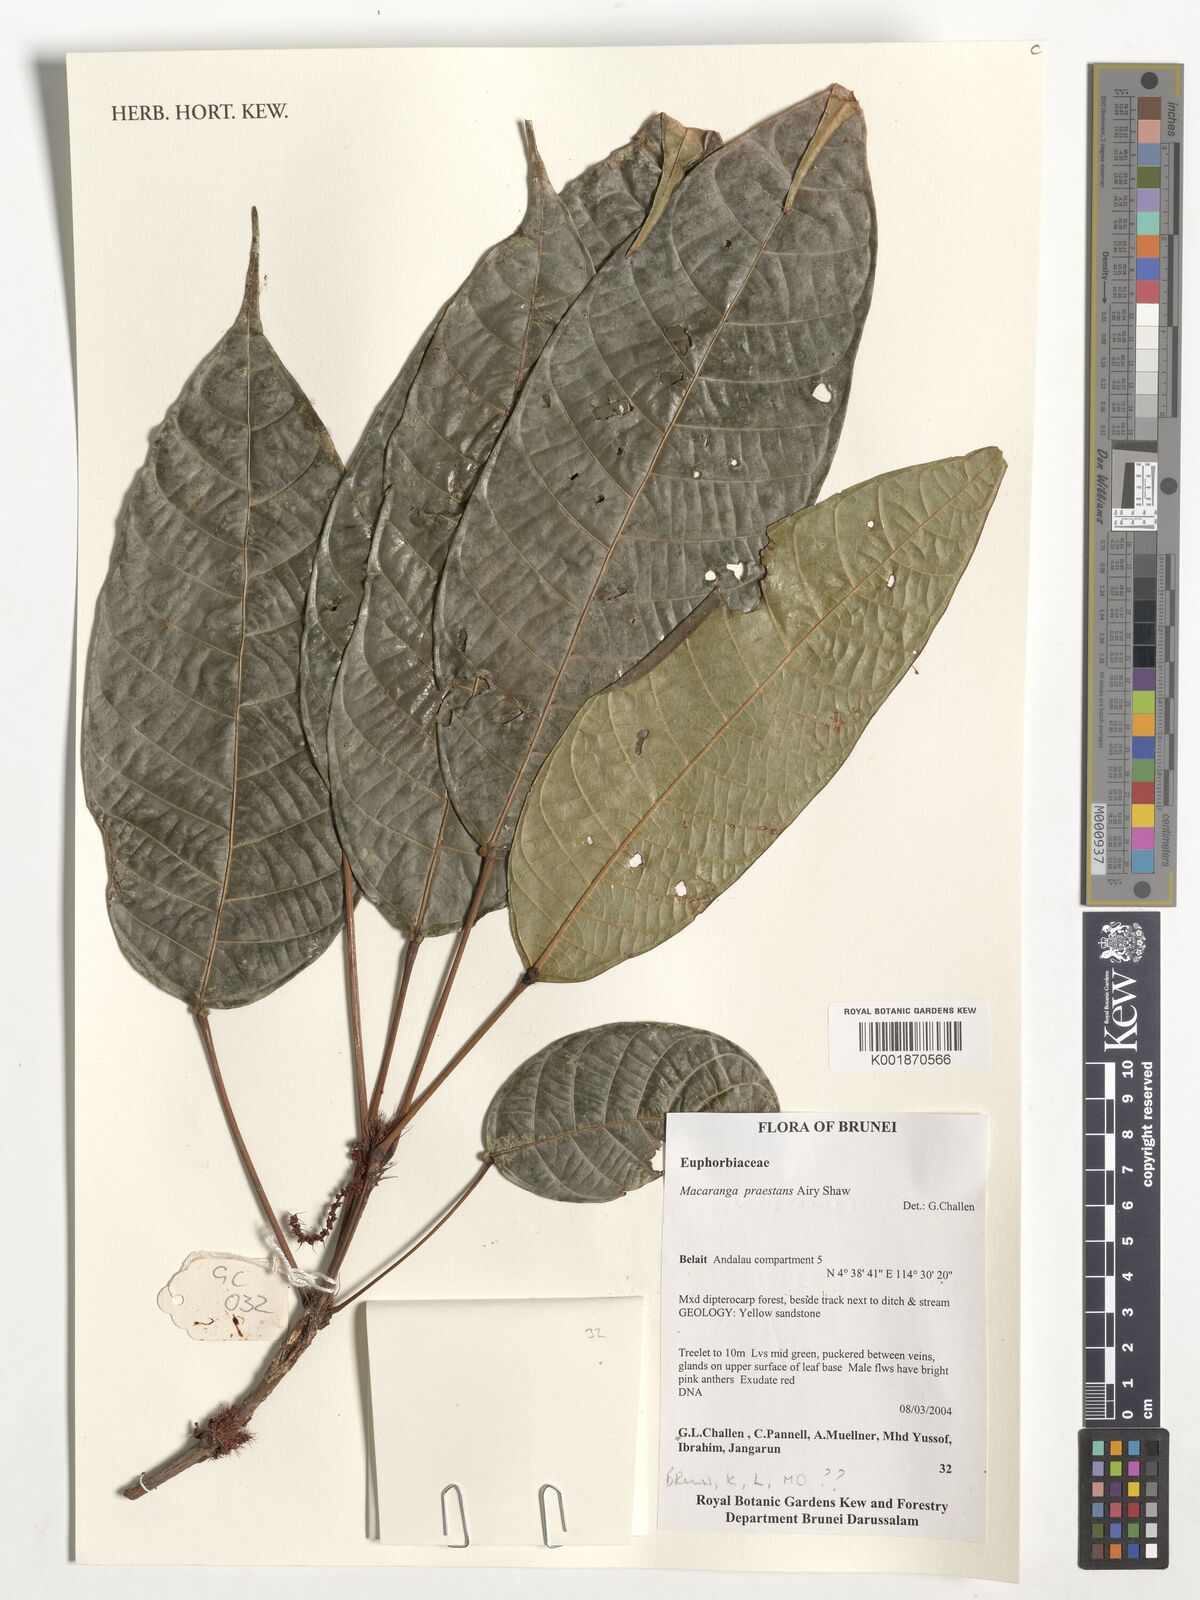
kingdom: Plantae
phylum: Tracheophyta
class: Magnoliopsida
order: Malpighiales
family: Euphorbiaceae
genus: Macaranga
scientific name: Macaranga praestans
